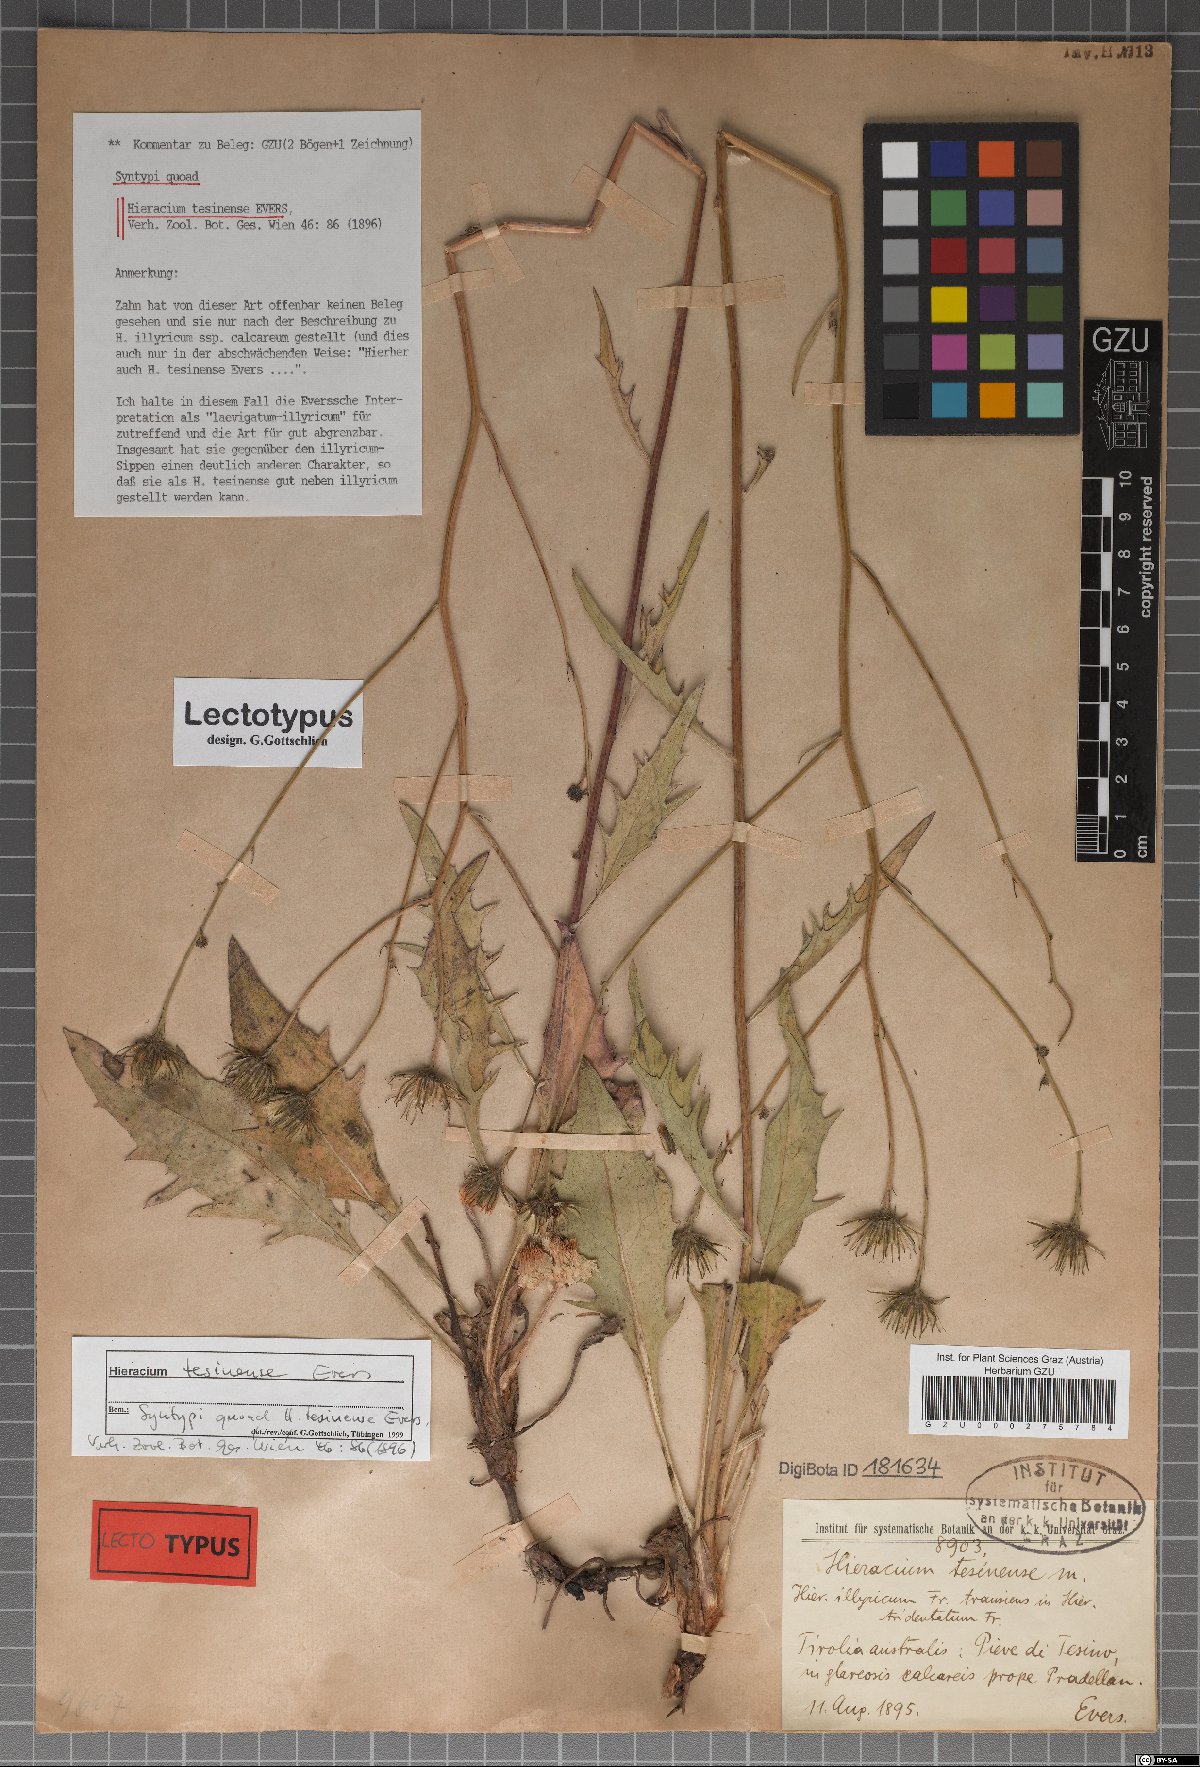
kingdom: Plantae
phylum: Tracheophyta
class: Magnoliopsida
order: Asterales
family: Asteraceae
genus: Hieracium
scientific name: Hieracium calcareum
